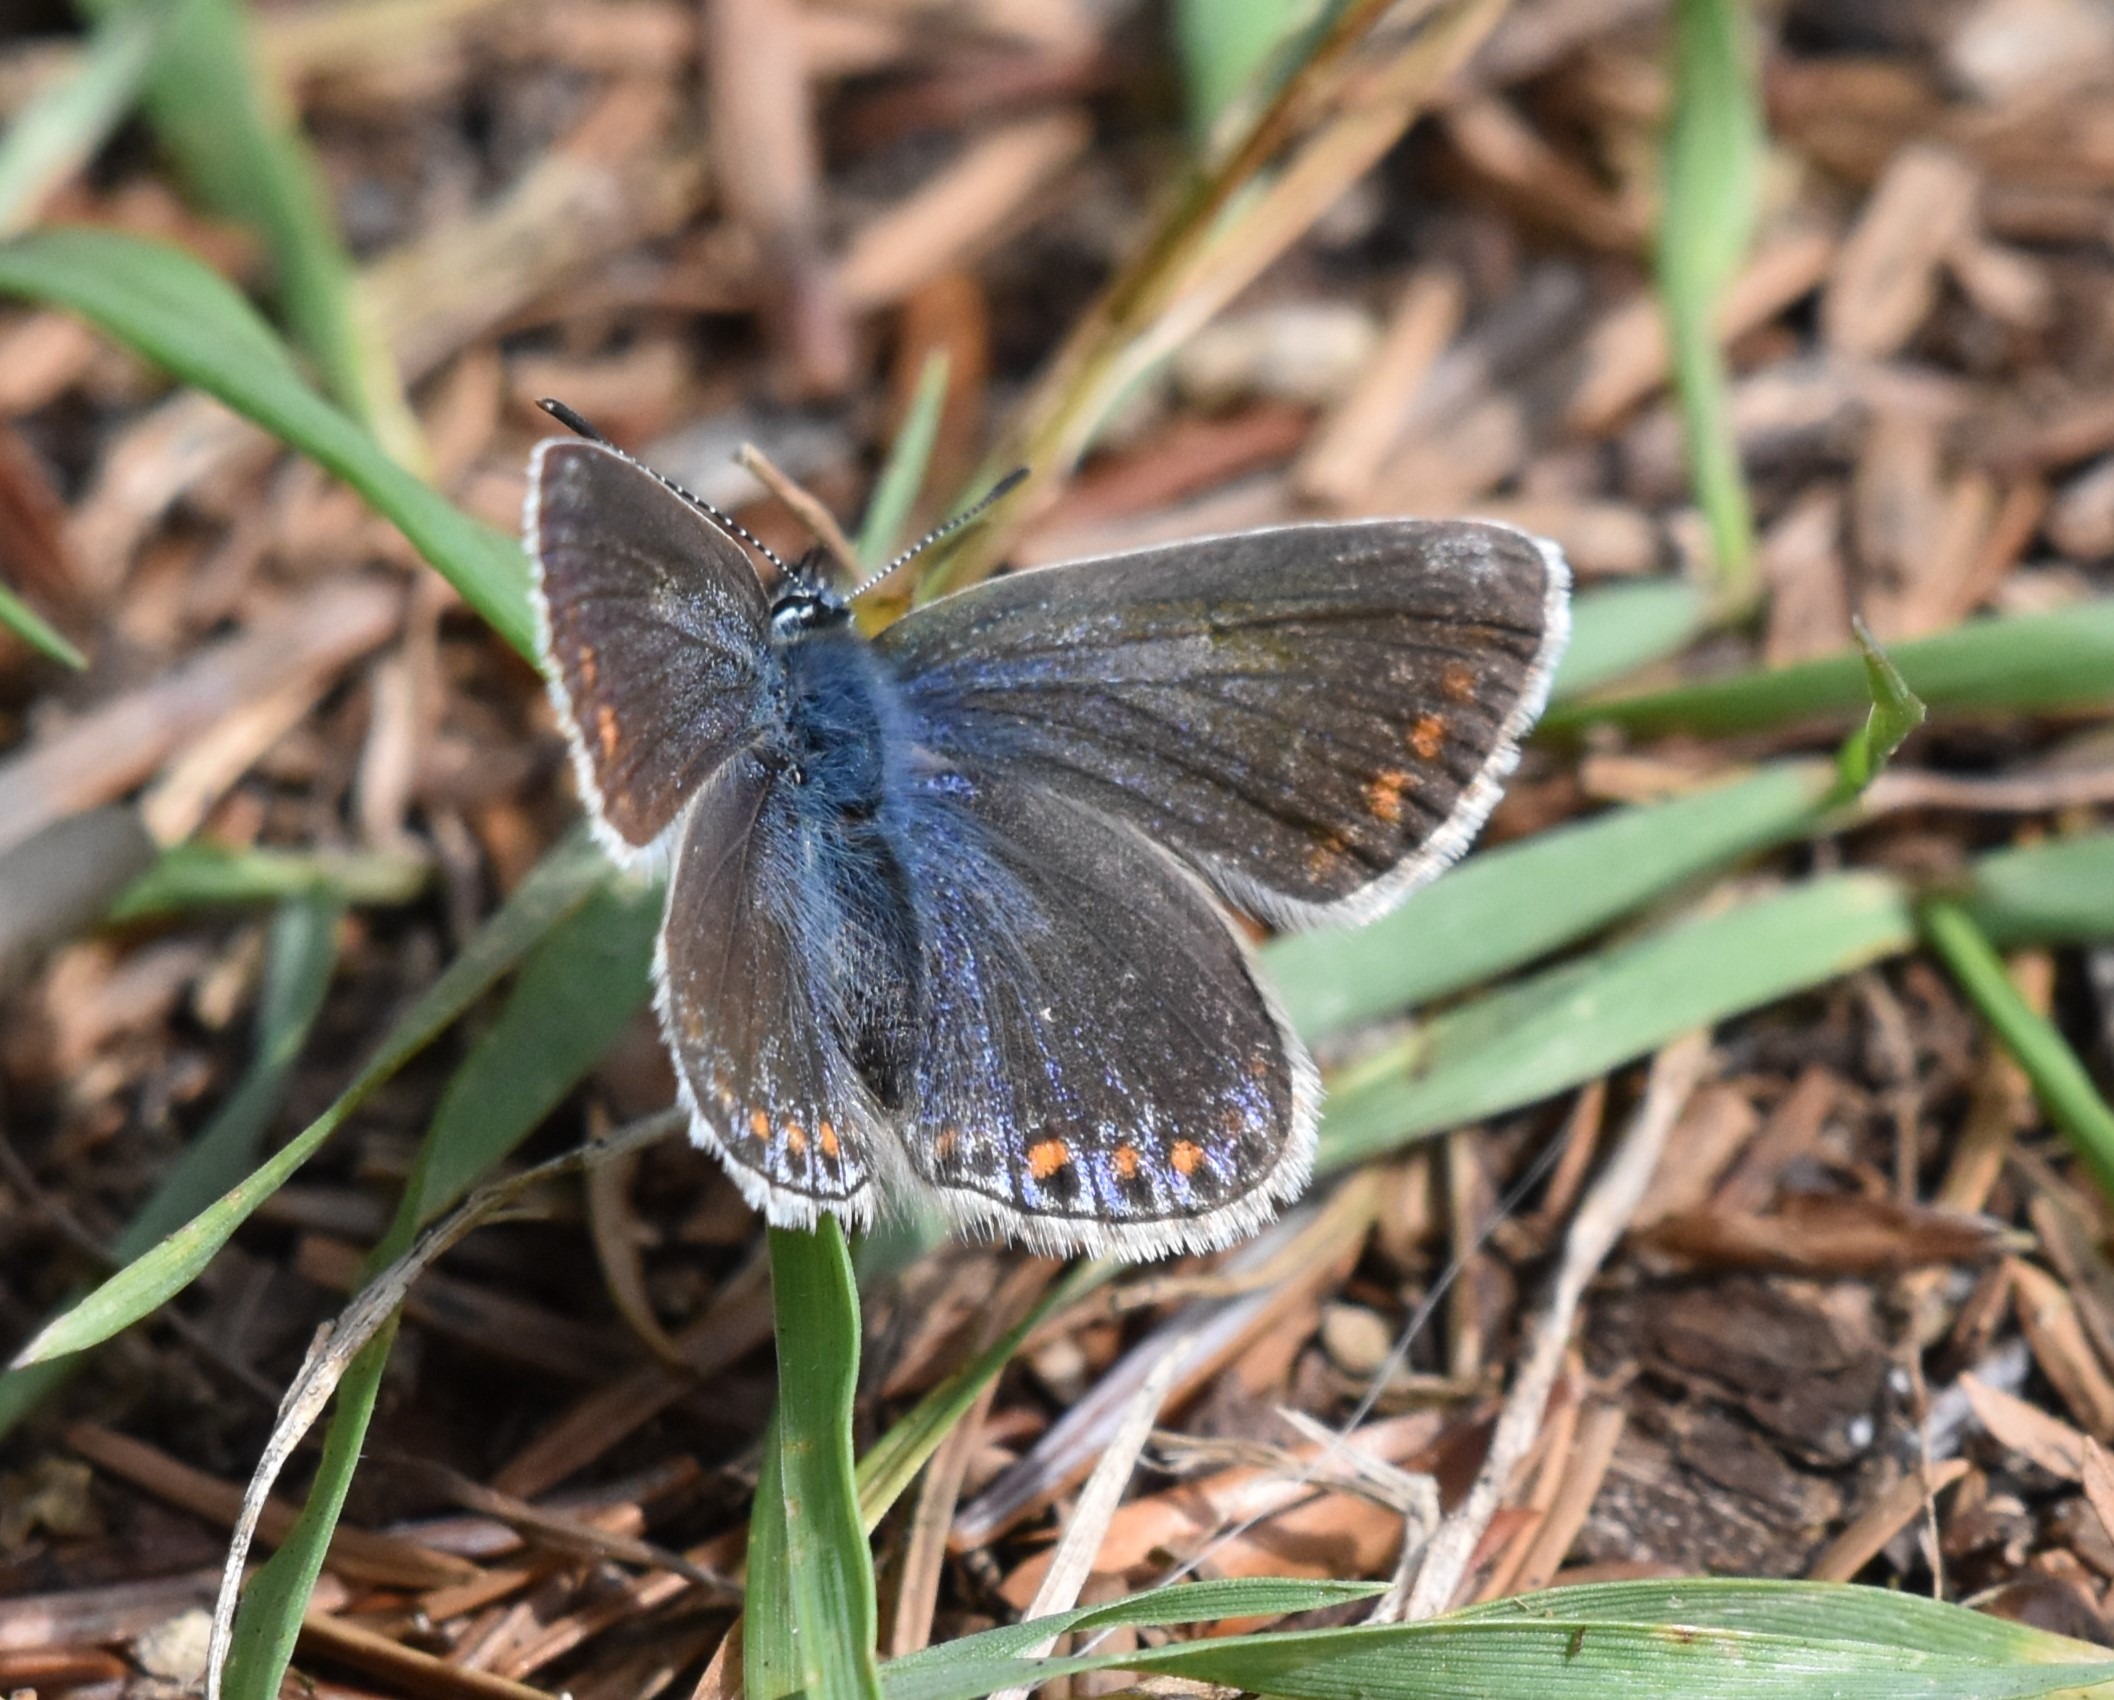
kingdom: Animalia
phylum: Arthropoda
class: Insecta
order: Lepidoptera
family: Lycaenidae
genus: Polyommatus
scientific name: Polyommatus icarus
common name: Almindelig blåfugl
